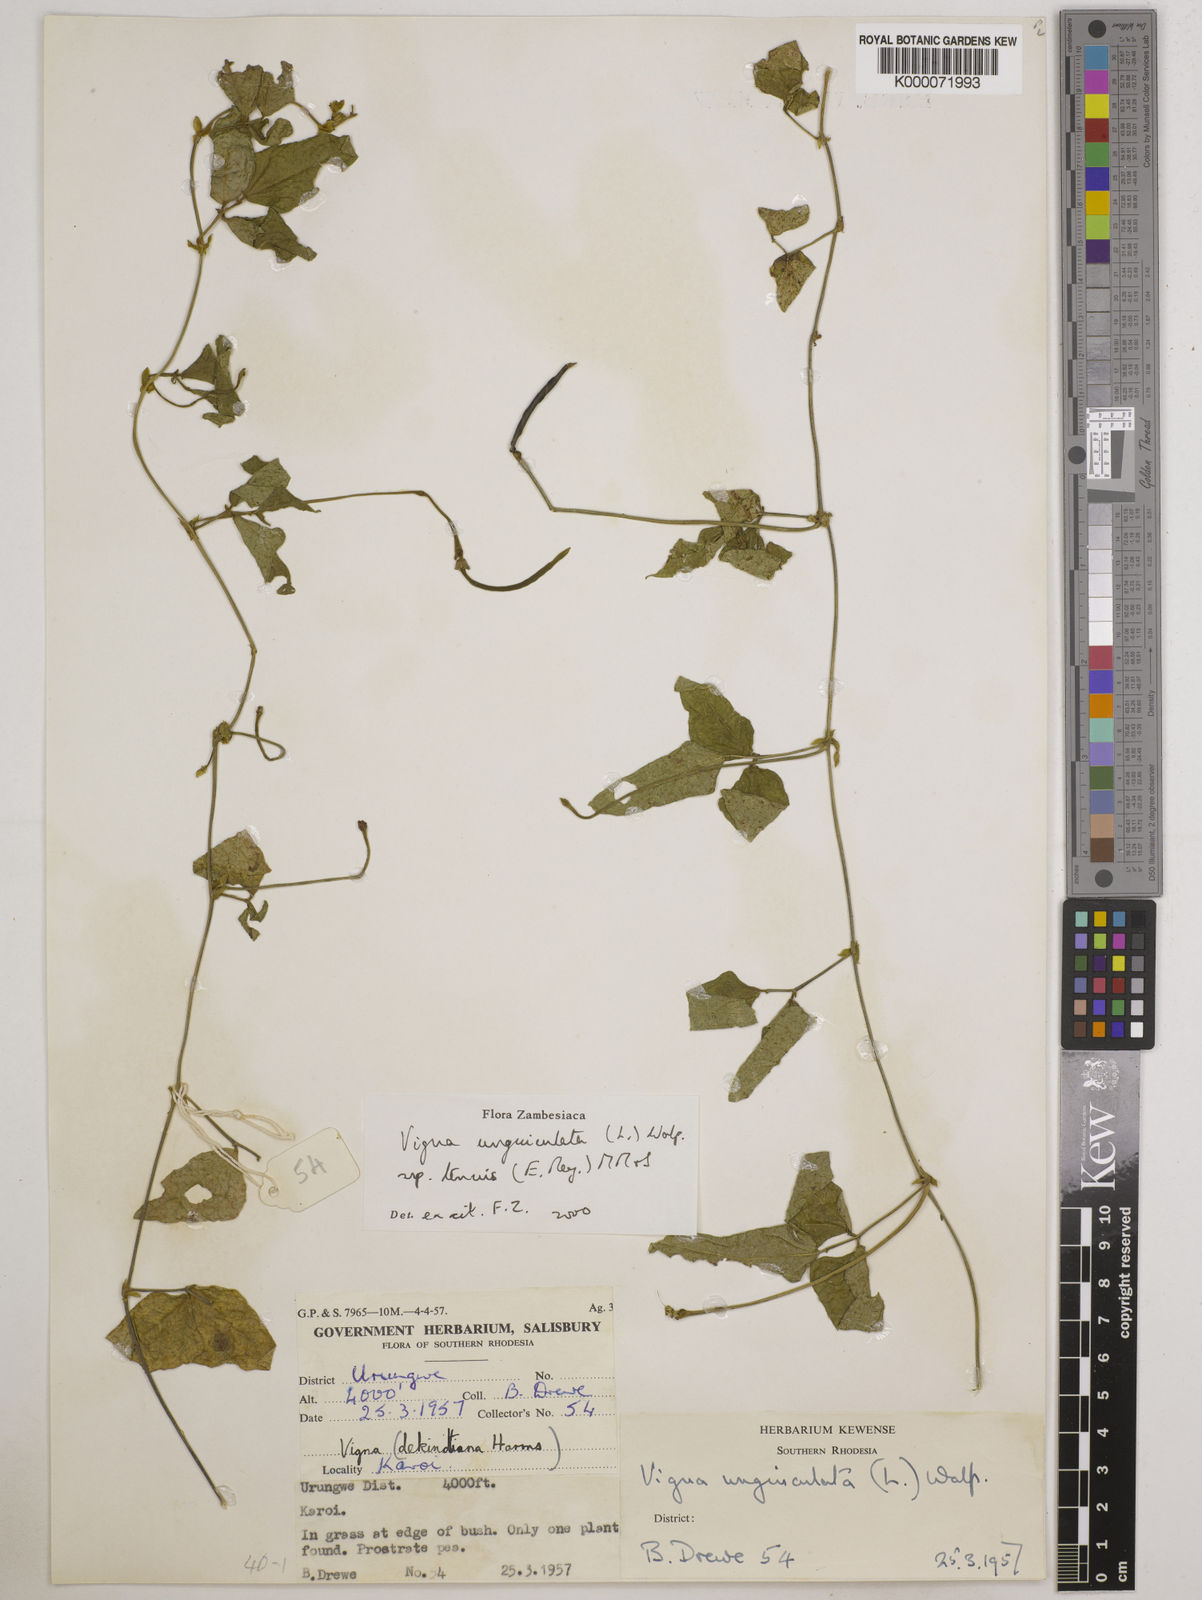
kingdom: Plantae
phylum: Tracheophyta
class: Magnoliopsida
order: Fabales
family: Fabaceae
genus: Vigna
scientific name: Vigna unguiculata
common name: Cowpea
